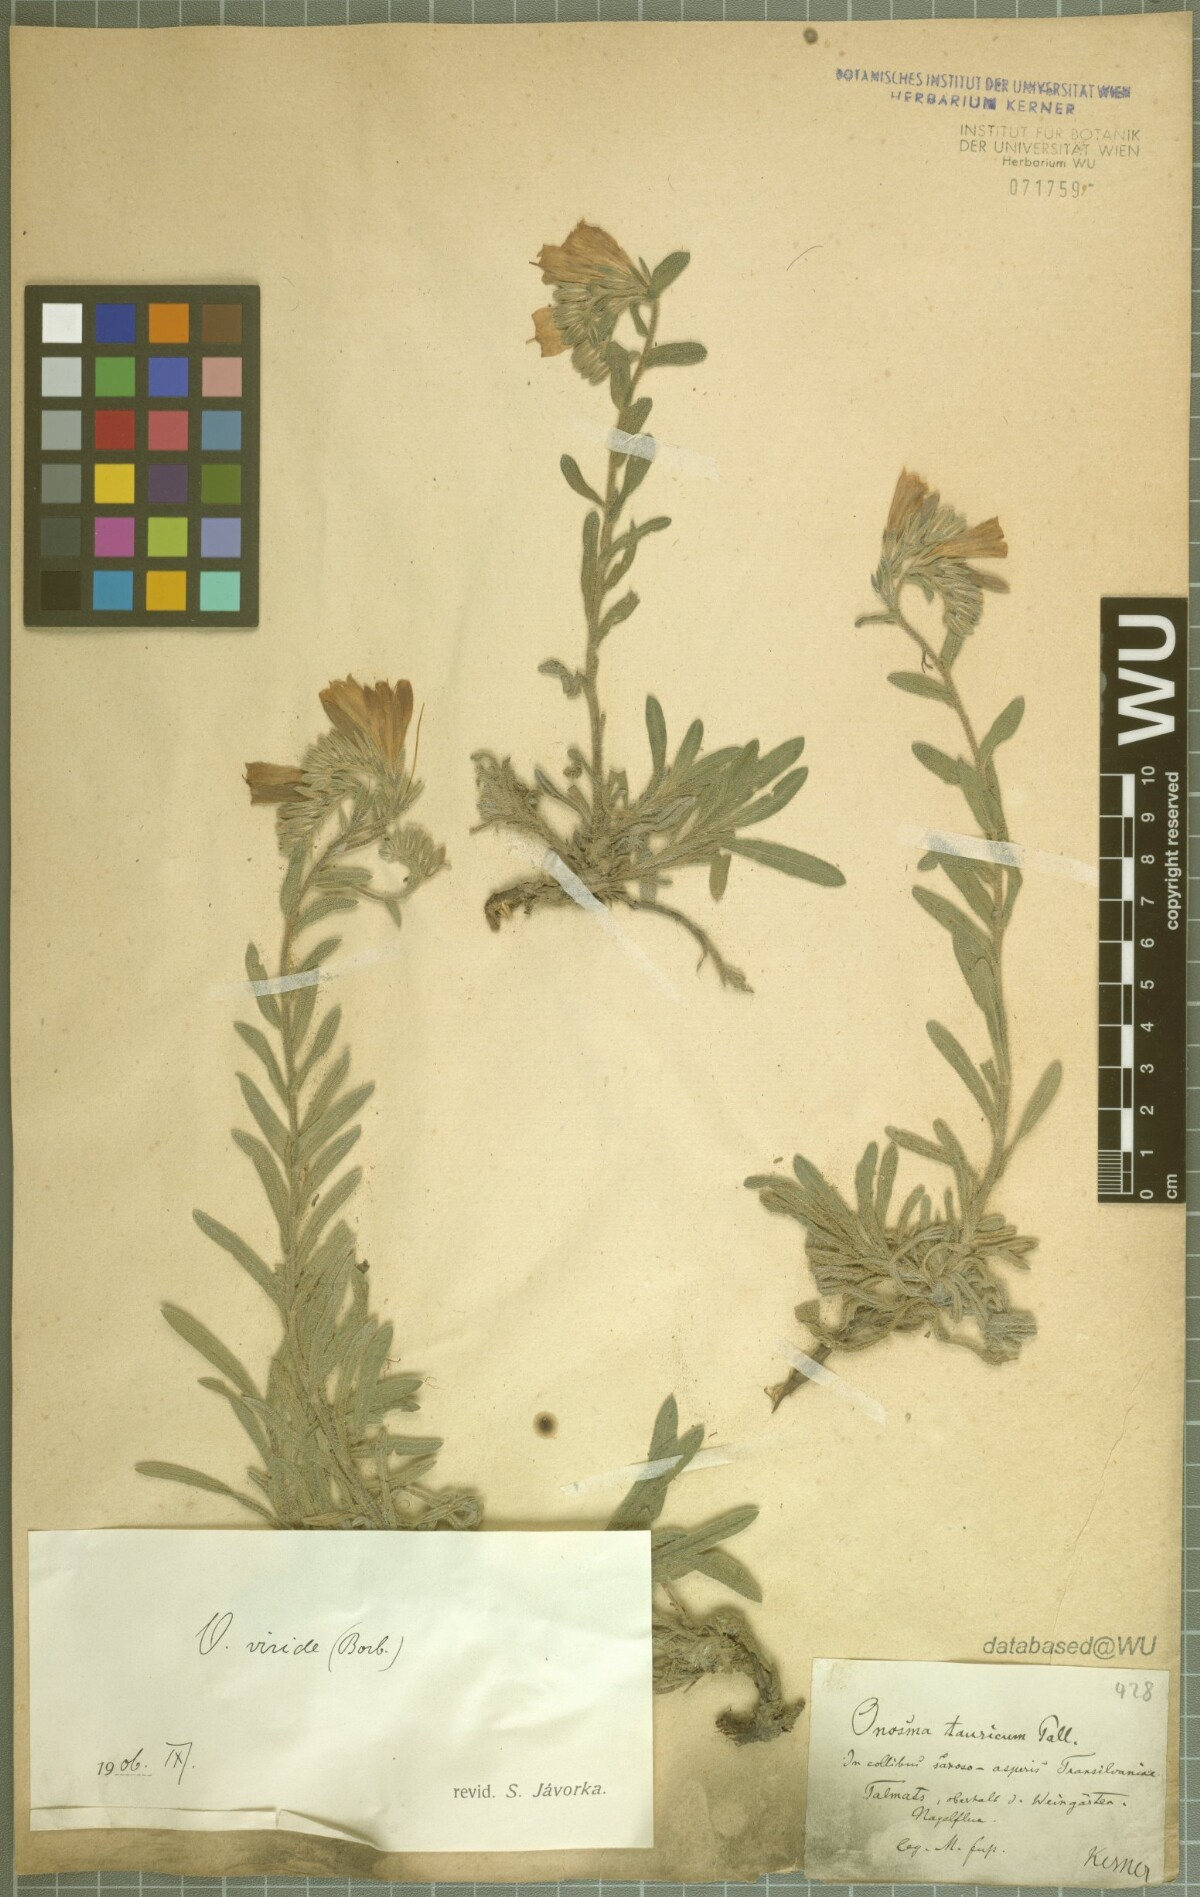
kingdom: Plantae
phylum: Tracheophyta
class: Magnoliopsida
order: Boraginales
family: Boraginaceae
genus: Onosma
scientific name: Onosma viridis
